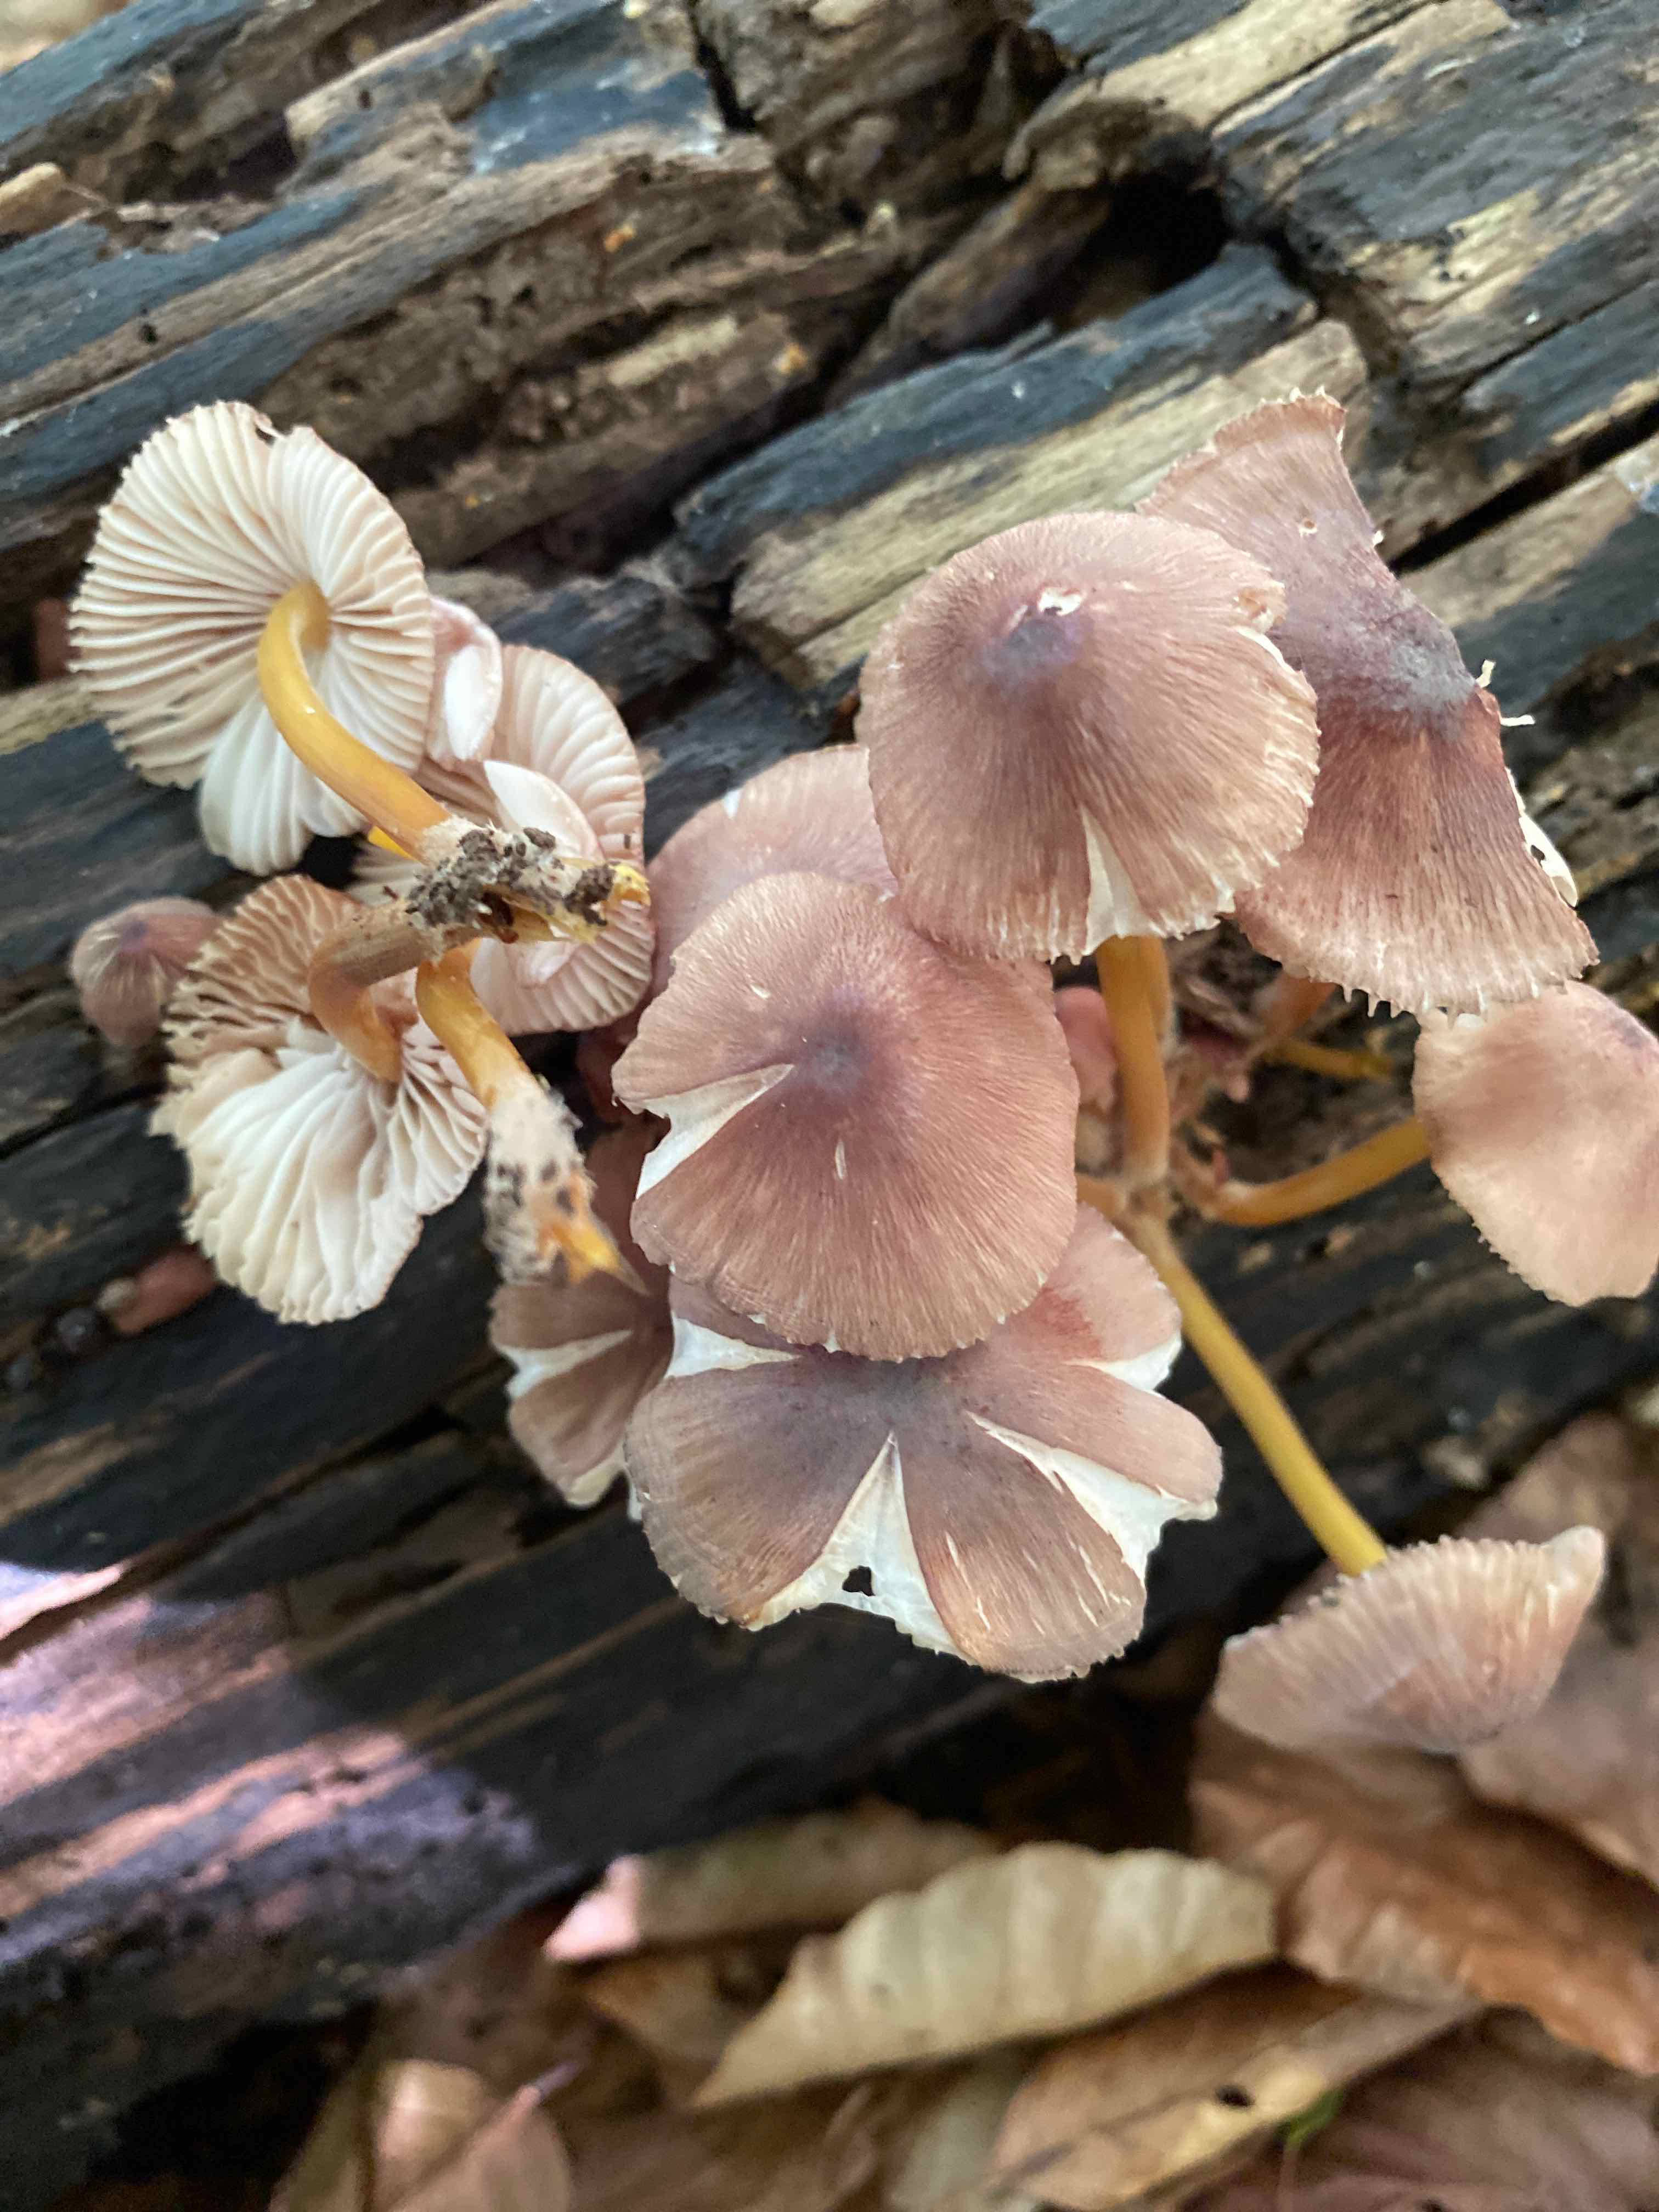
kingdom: Fungi
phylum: Basidiomycota
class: Agaricomycetes
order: Agaricales
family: Mycenaceae
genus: Mycena
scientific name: Mycena renati
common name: smuk huesvamp
